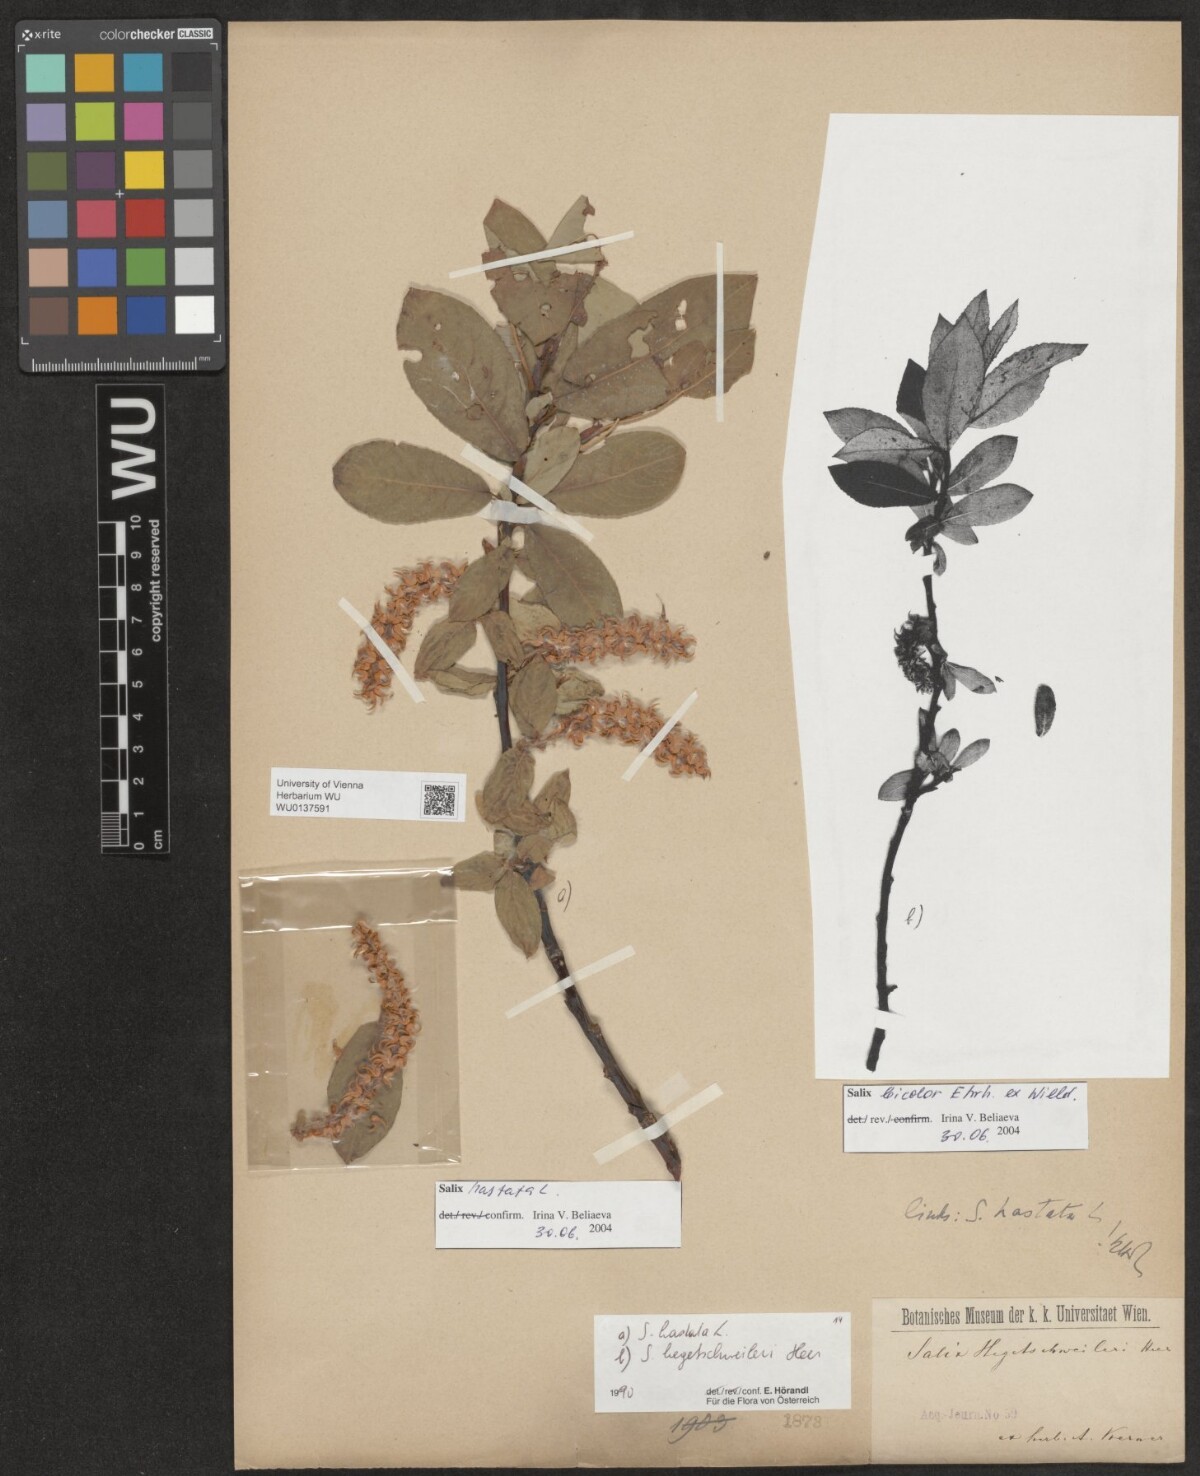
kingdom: Plantae
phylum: Tracheophyta
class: Magnoliopsida
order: Malpighiales
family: Salicaceae
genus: Salix
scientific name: Salix hastata
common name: Halberd willow
